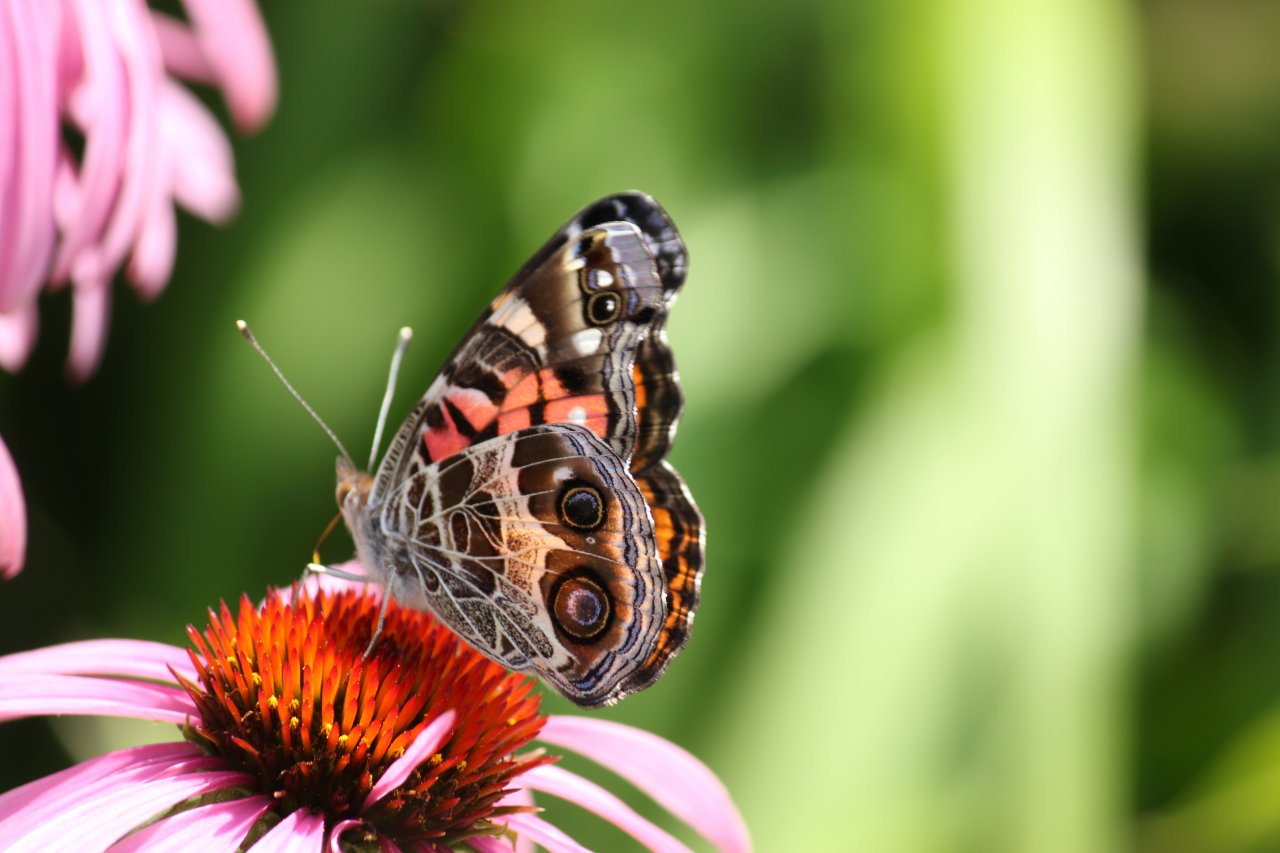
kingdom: Animalia
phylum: Arthropoda
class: Insecta
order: Lepidoptera
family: Nymphalidae
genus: Vanessa
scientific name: Vanessa virginiensis
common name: American Lady
